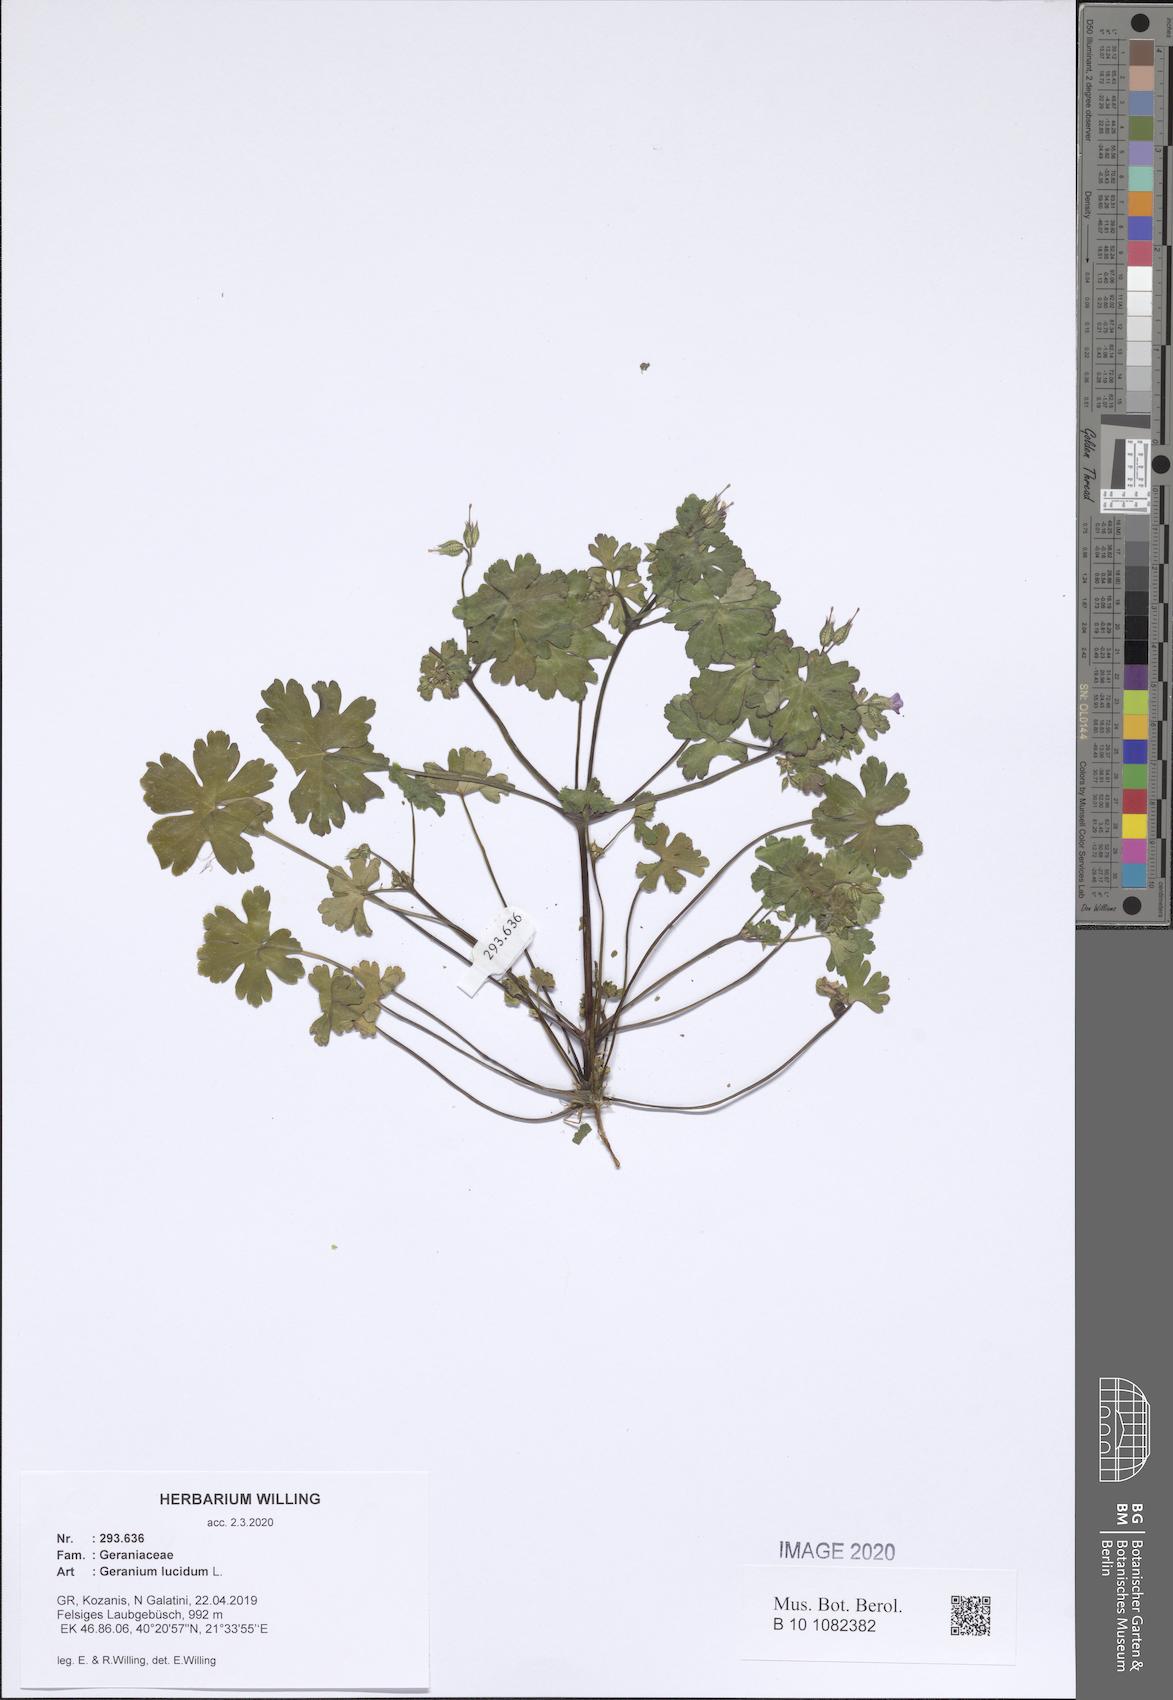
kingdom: Plantae
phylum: Tracheophyta
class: Magnoliopsida
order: Geraniales
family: Geraniaceae
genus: Geranium
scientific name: Geranium lucidum
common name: Shining crane's-bill
